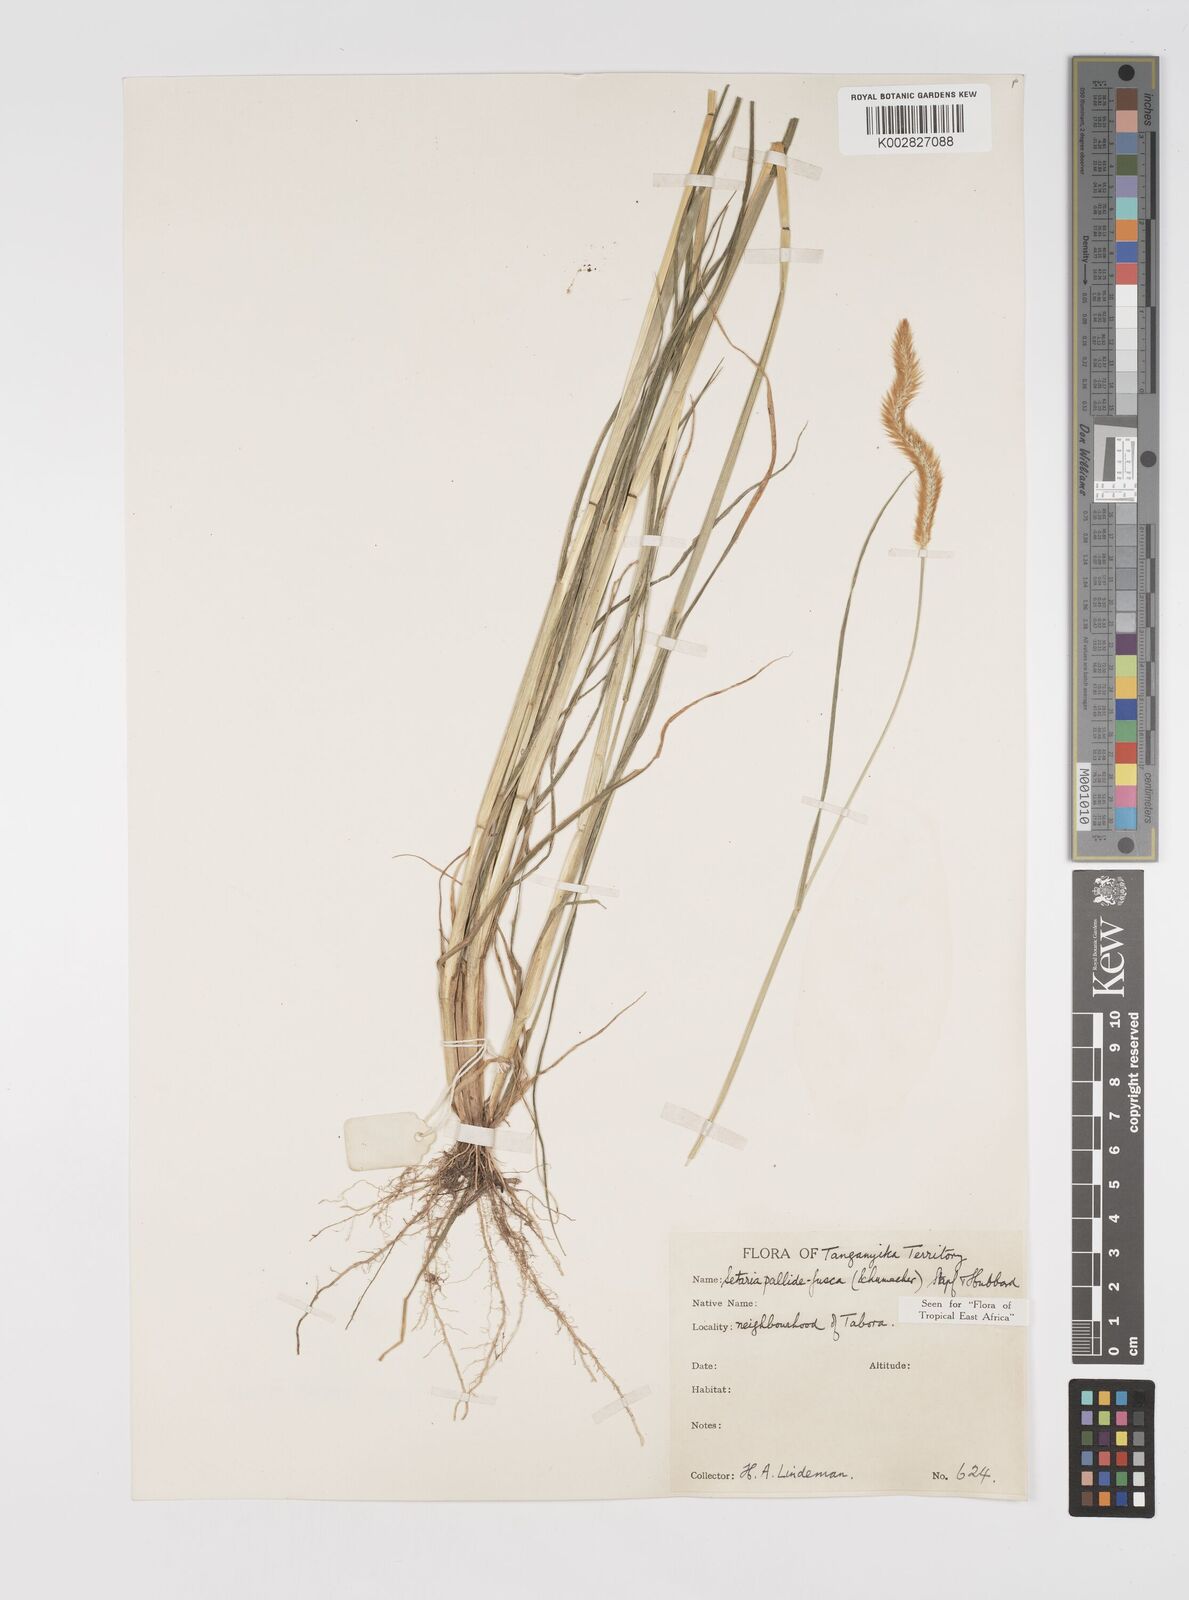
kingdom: Plantae
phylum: Tracheophyta
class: Liliopsida
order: Poales
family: Poaceae
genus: Setaria
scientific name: Setaria pumila
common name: Yellow bristle-grass
